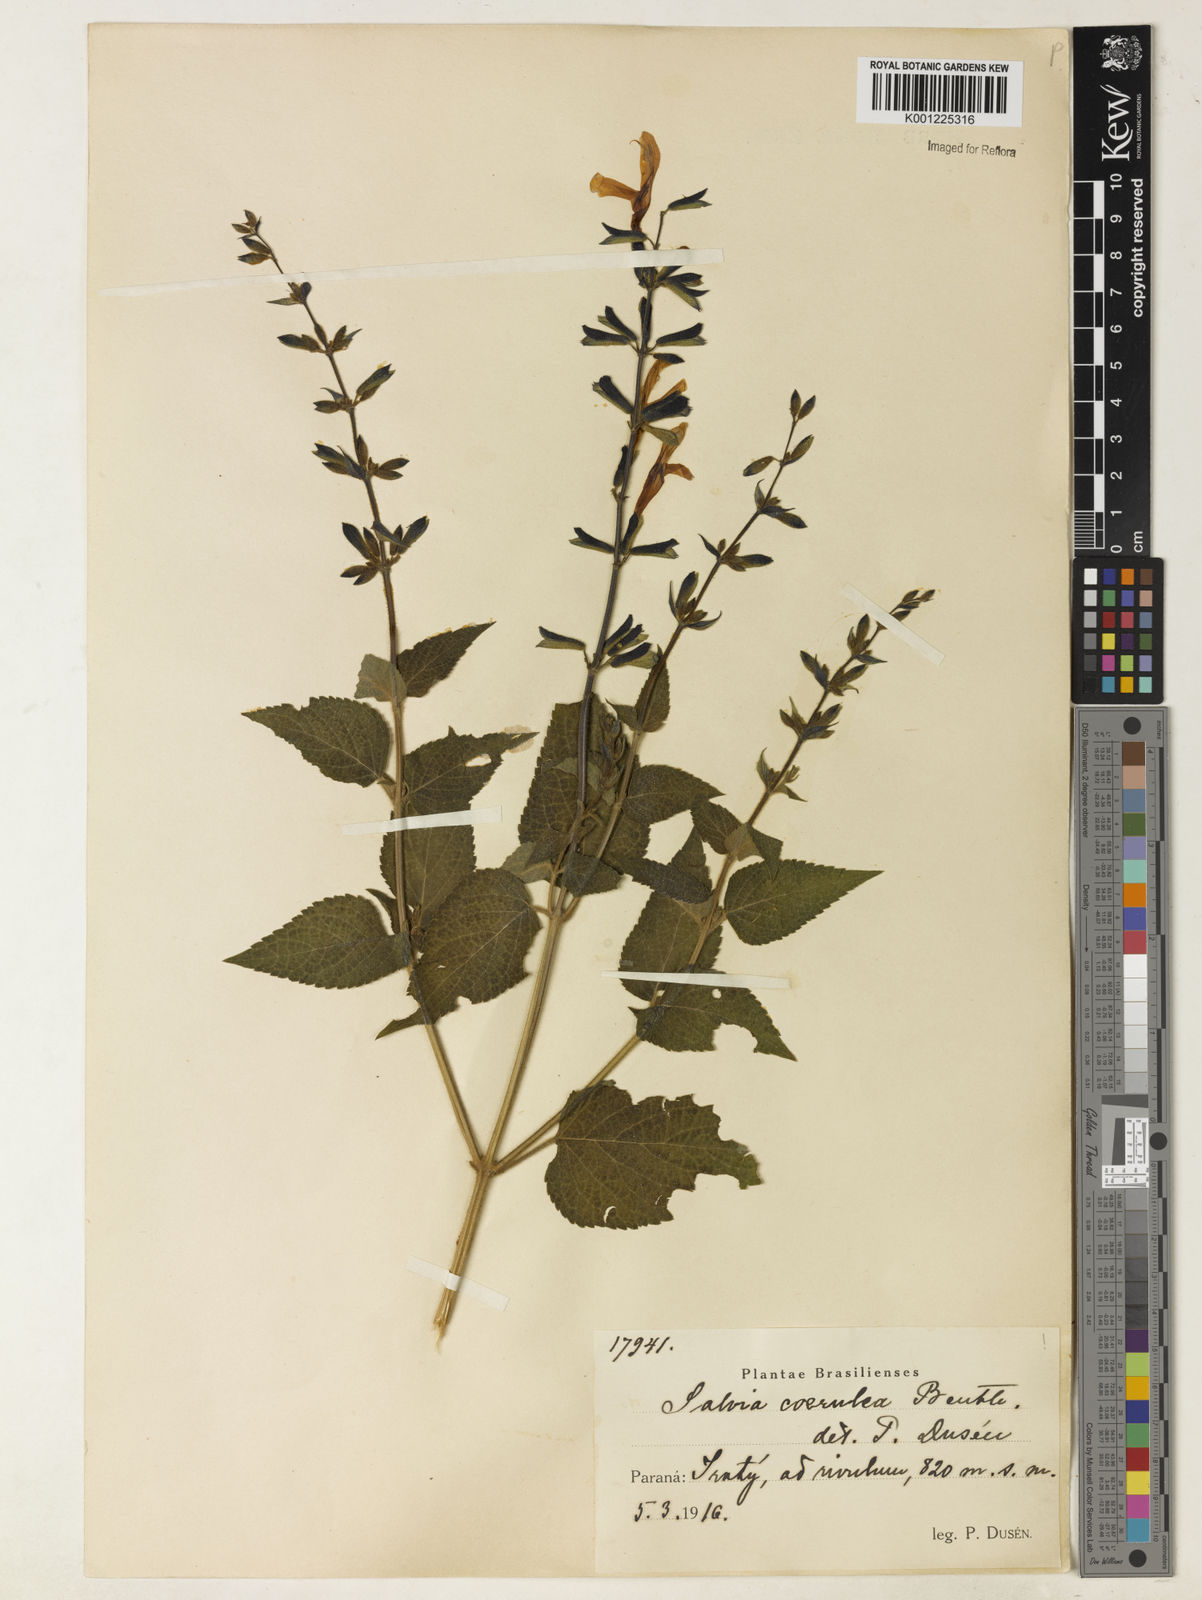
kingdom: Plantae
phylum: Tracheophyta
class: Magnoliopsida
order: Lamiales
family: Lamiaceae
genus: Salvia
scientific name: Salvia guaranitica
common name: Anise-scented sage
